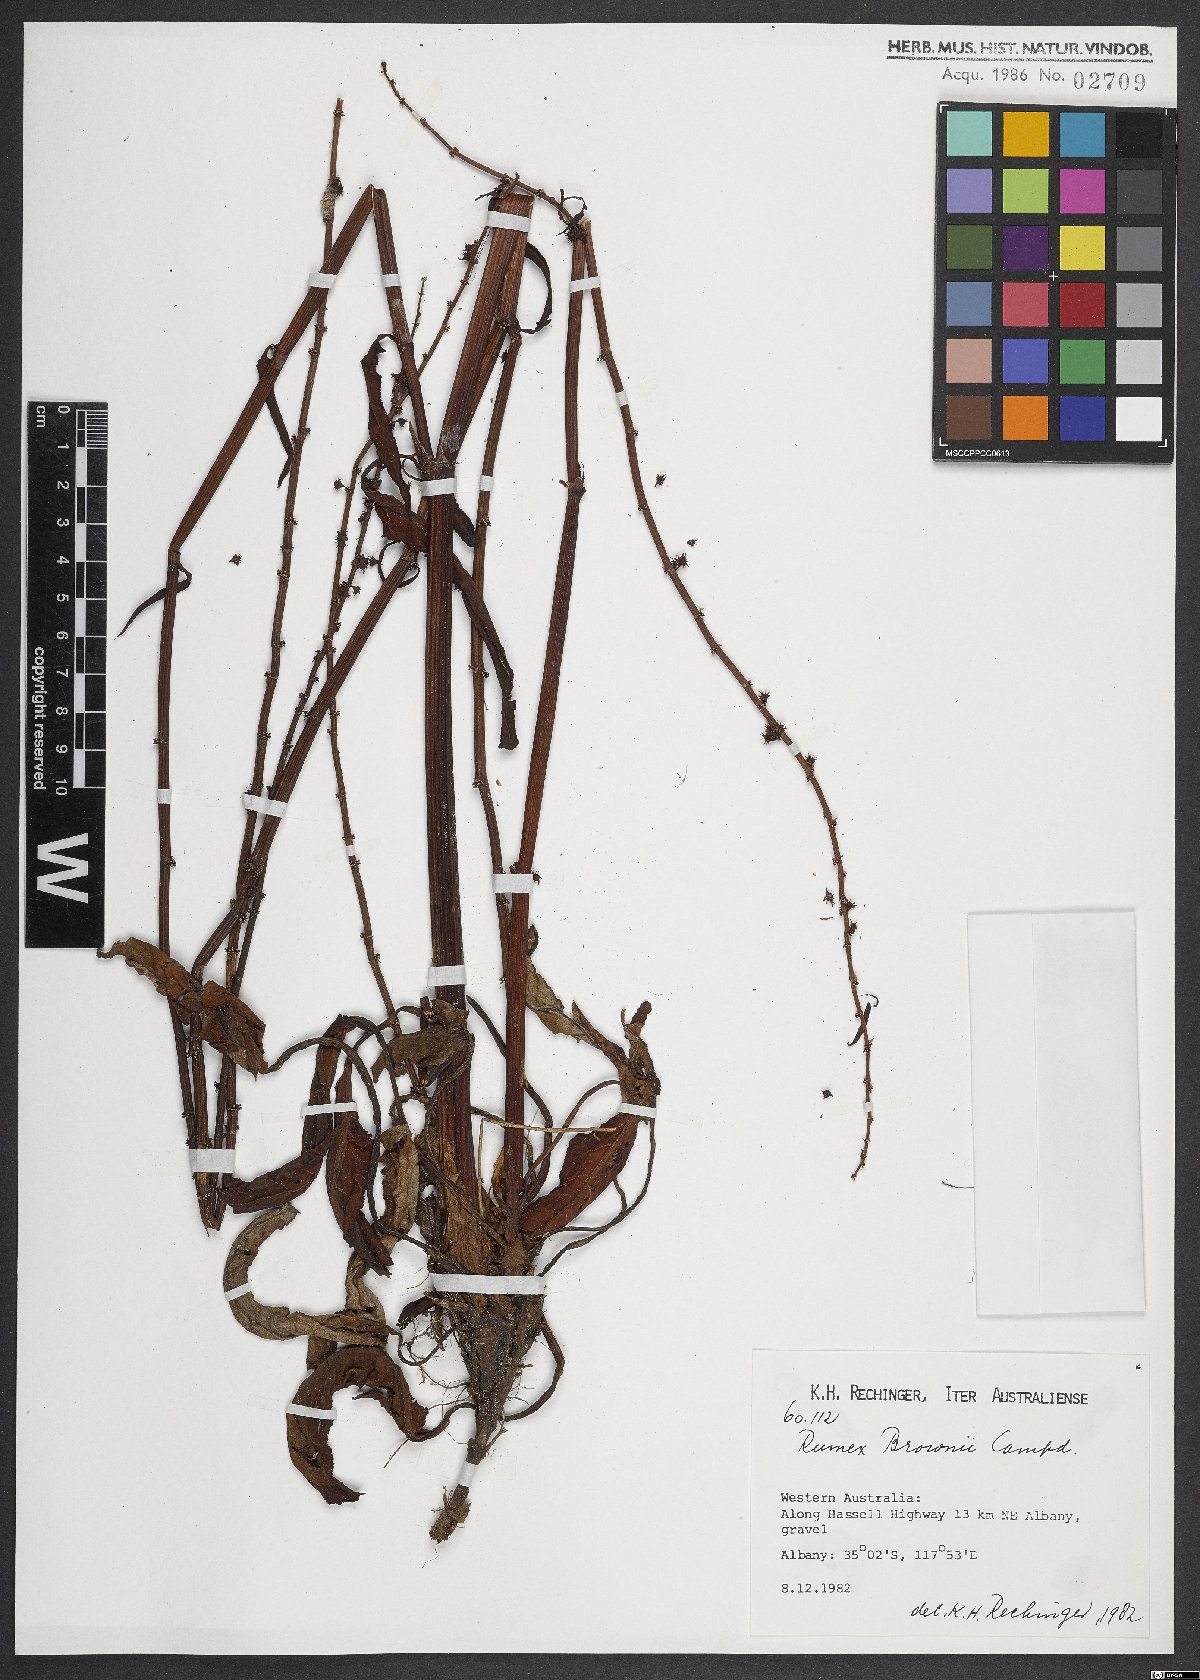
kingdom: Plantae
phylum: Tracheophyta
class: Magnoliopsida
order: Caryophyllales
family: Polygonaceae
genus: Rumex
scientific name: Rumex brownii
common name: Hooked dock
